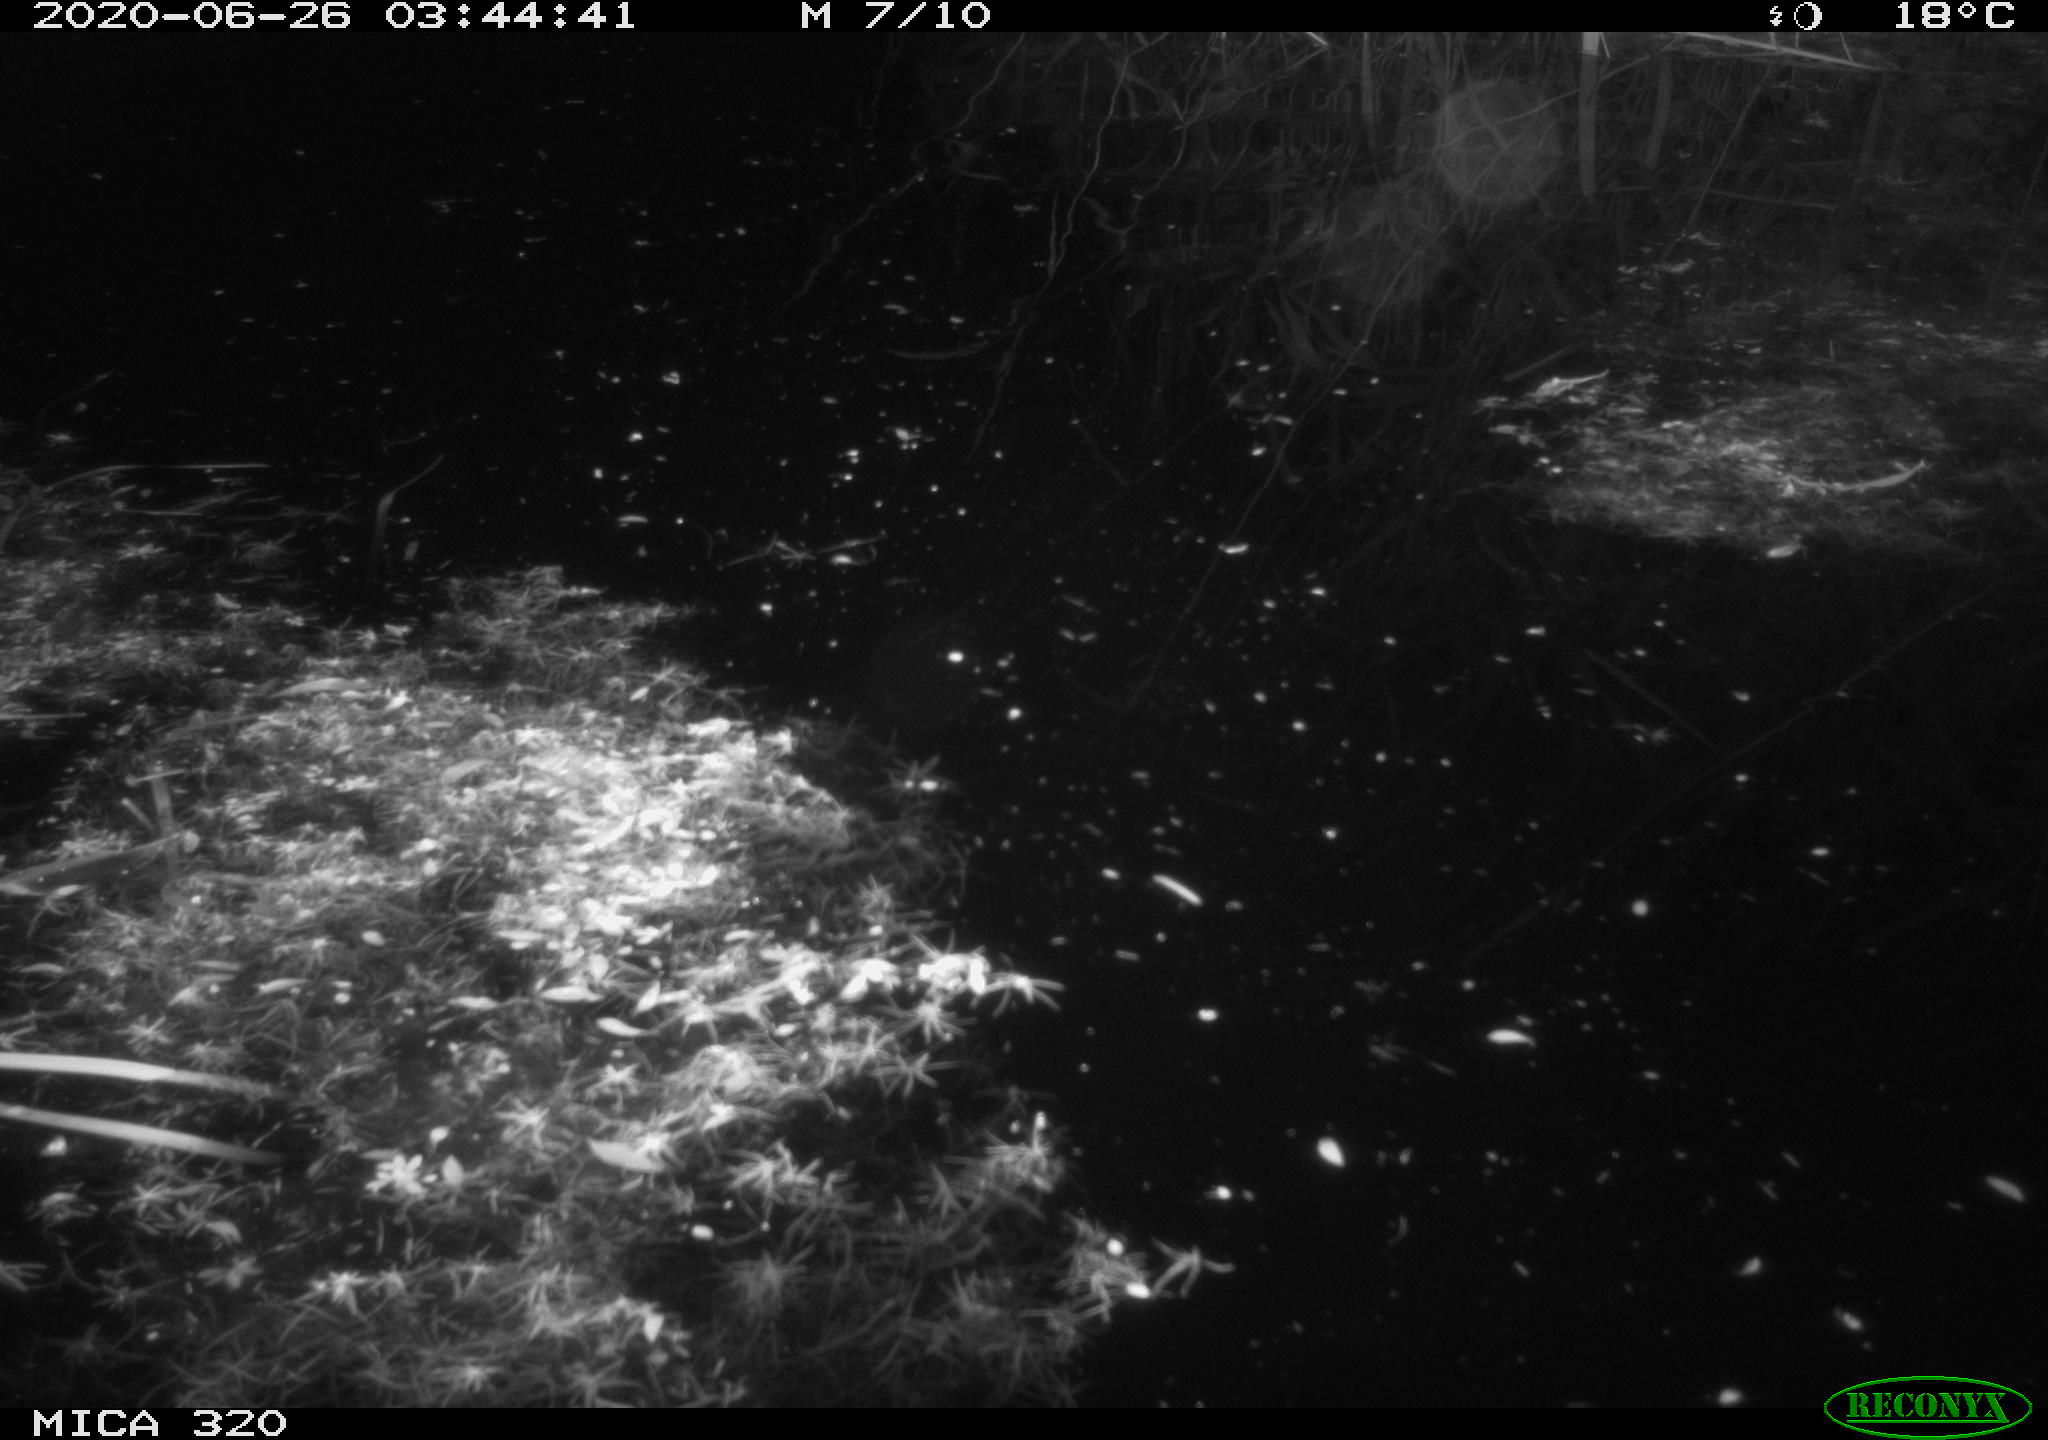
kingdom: Animalia
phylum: Chordata
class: Aves
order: Anseriformes
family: Anatidae
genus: Anas
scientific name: Anas platyrhynchos
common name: Mallard
